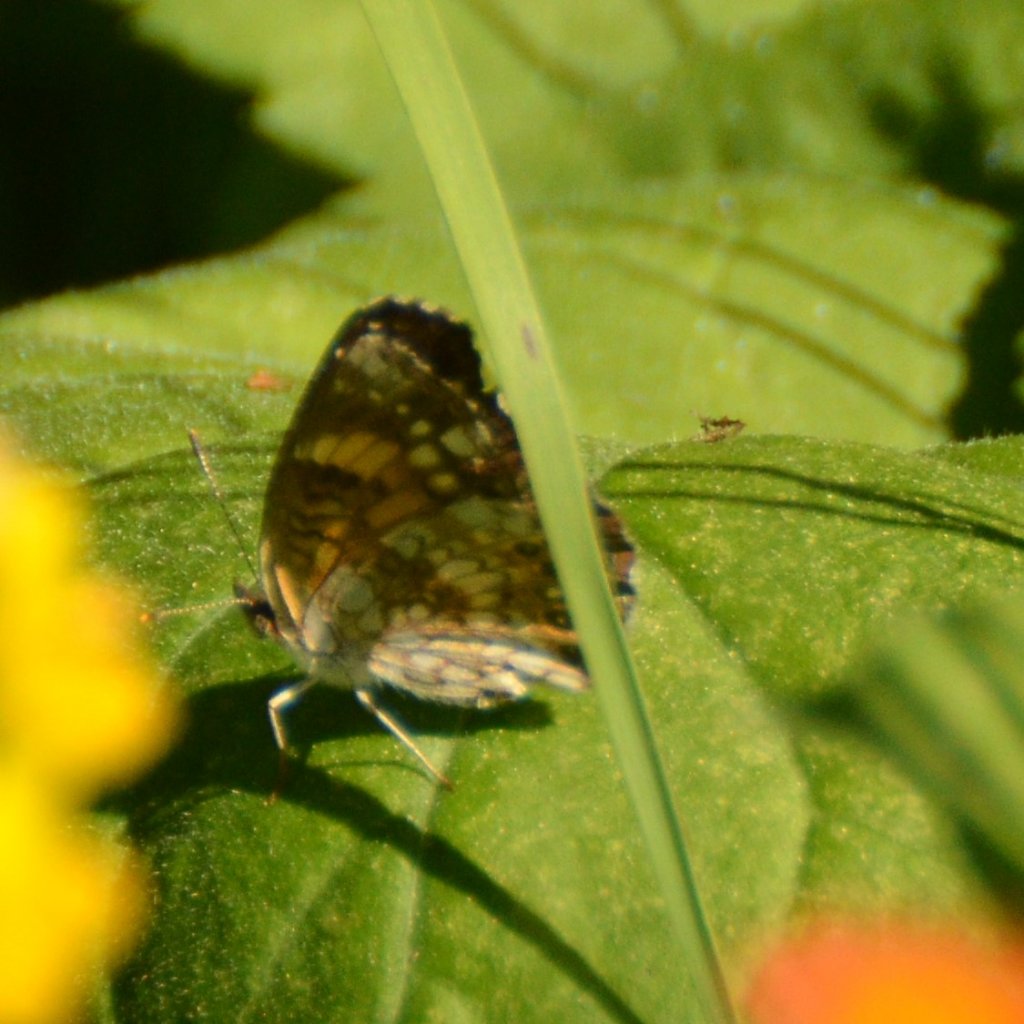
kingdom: Animalia
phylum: Arthropoda
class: Insecta
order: Lepidoptera
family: Nymphalidae
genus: Chlosyne
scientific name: Chlosyne nycteis
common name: Silvery Checkerspot
